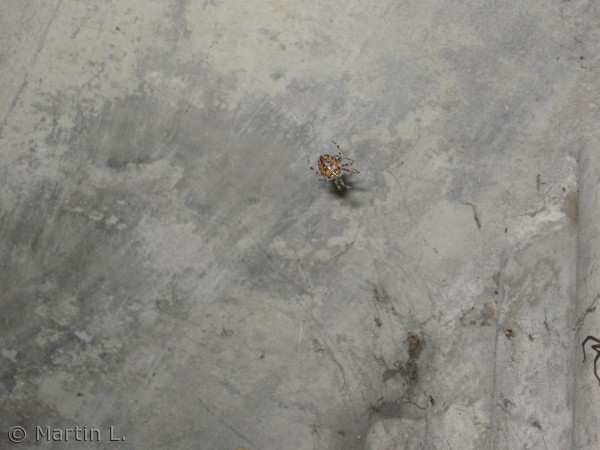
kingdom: Animalia
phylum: Arthropoda
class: Arachnida
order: Araneae
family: Araneidae
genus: Araneus
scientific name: Araneus diadematus
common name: Korsedderkop
